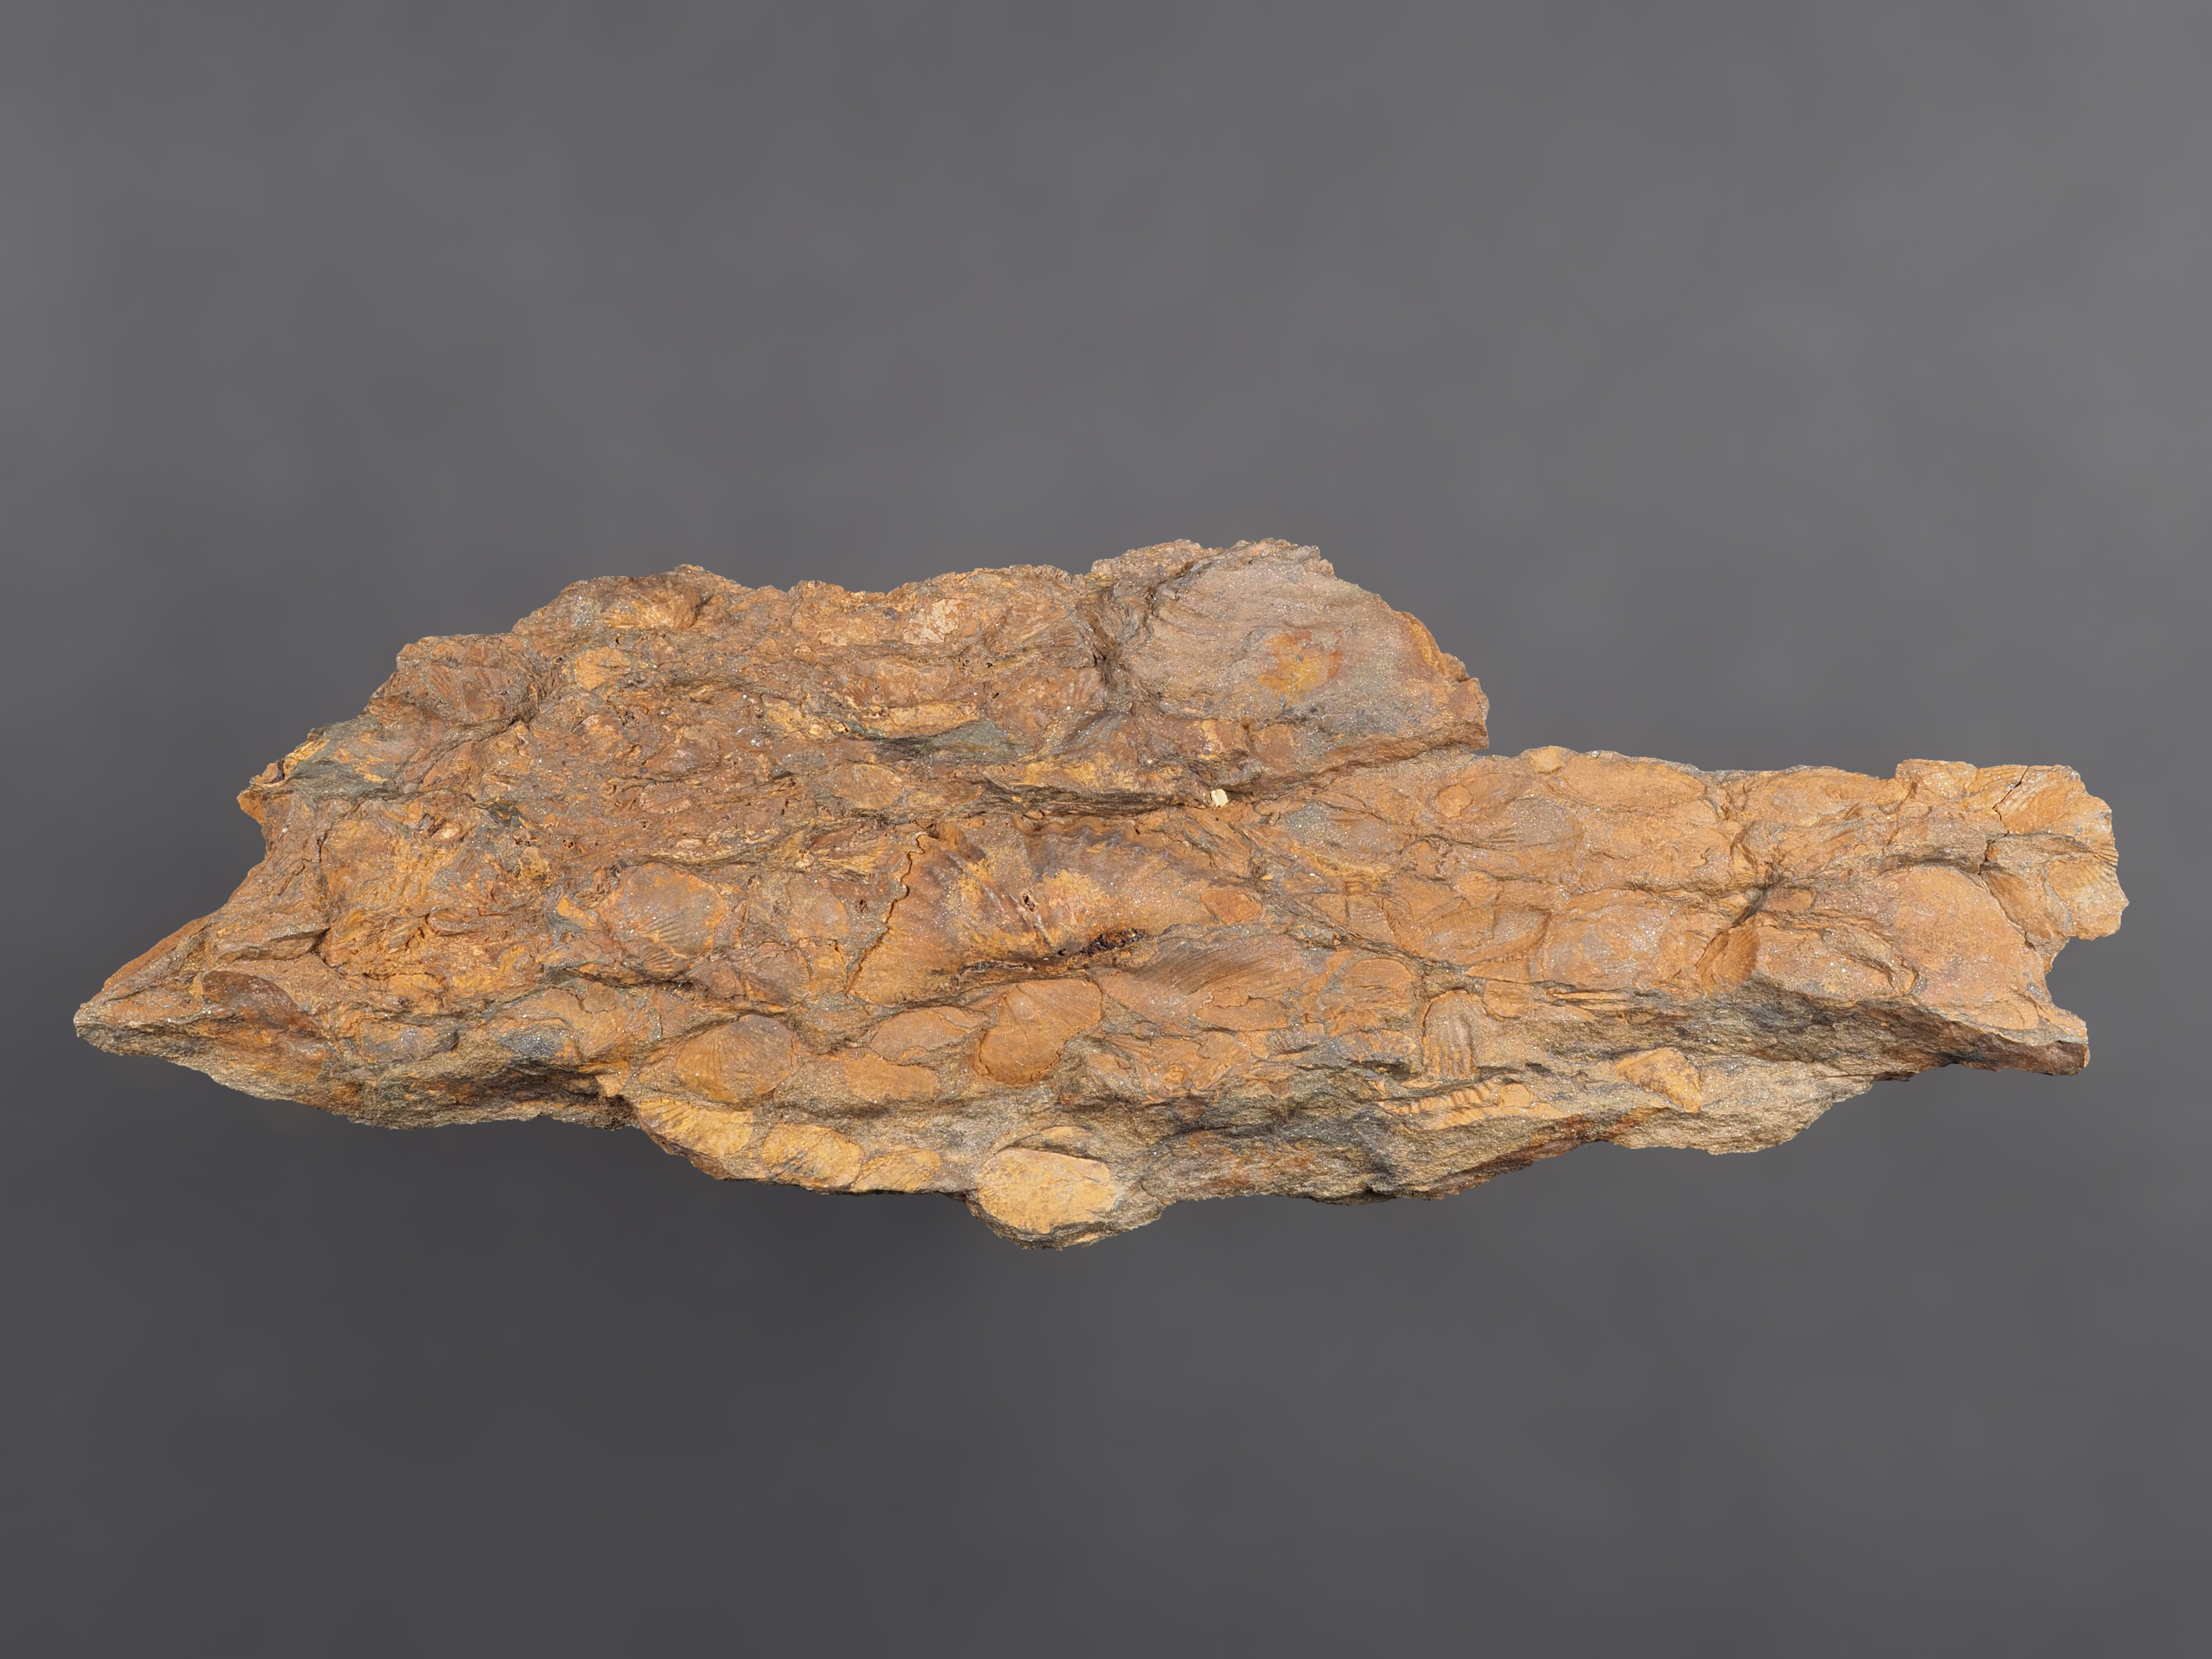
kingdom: Animalia
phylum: Brachiopoda
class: Rhynchonellata
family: Hysterolitidae
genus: Arduspirifer
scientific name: Arduspirifer
